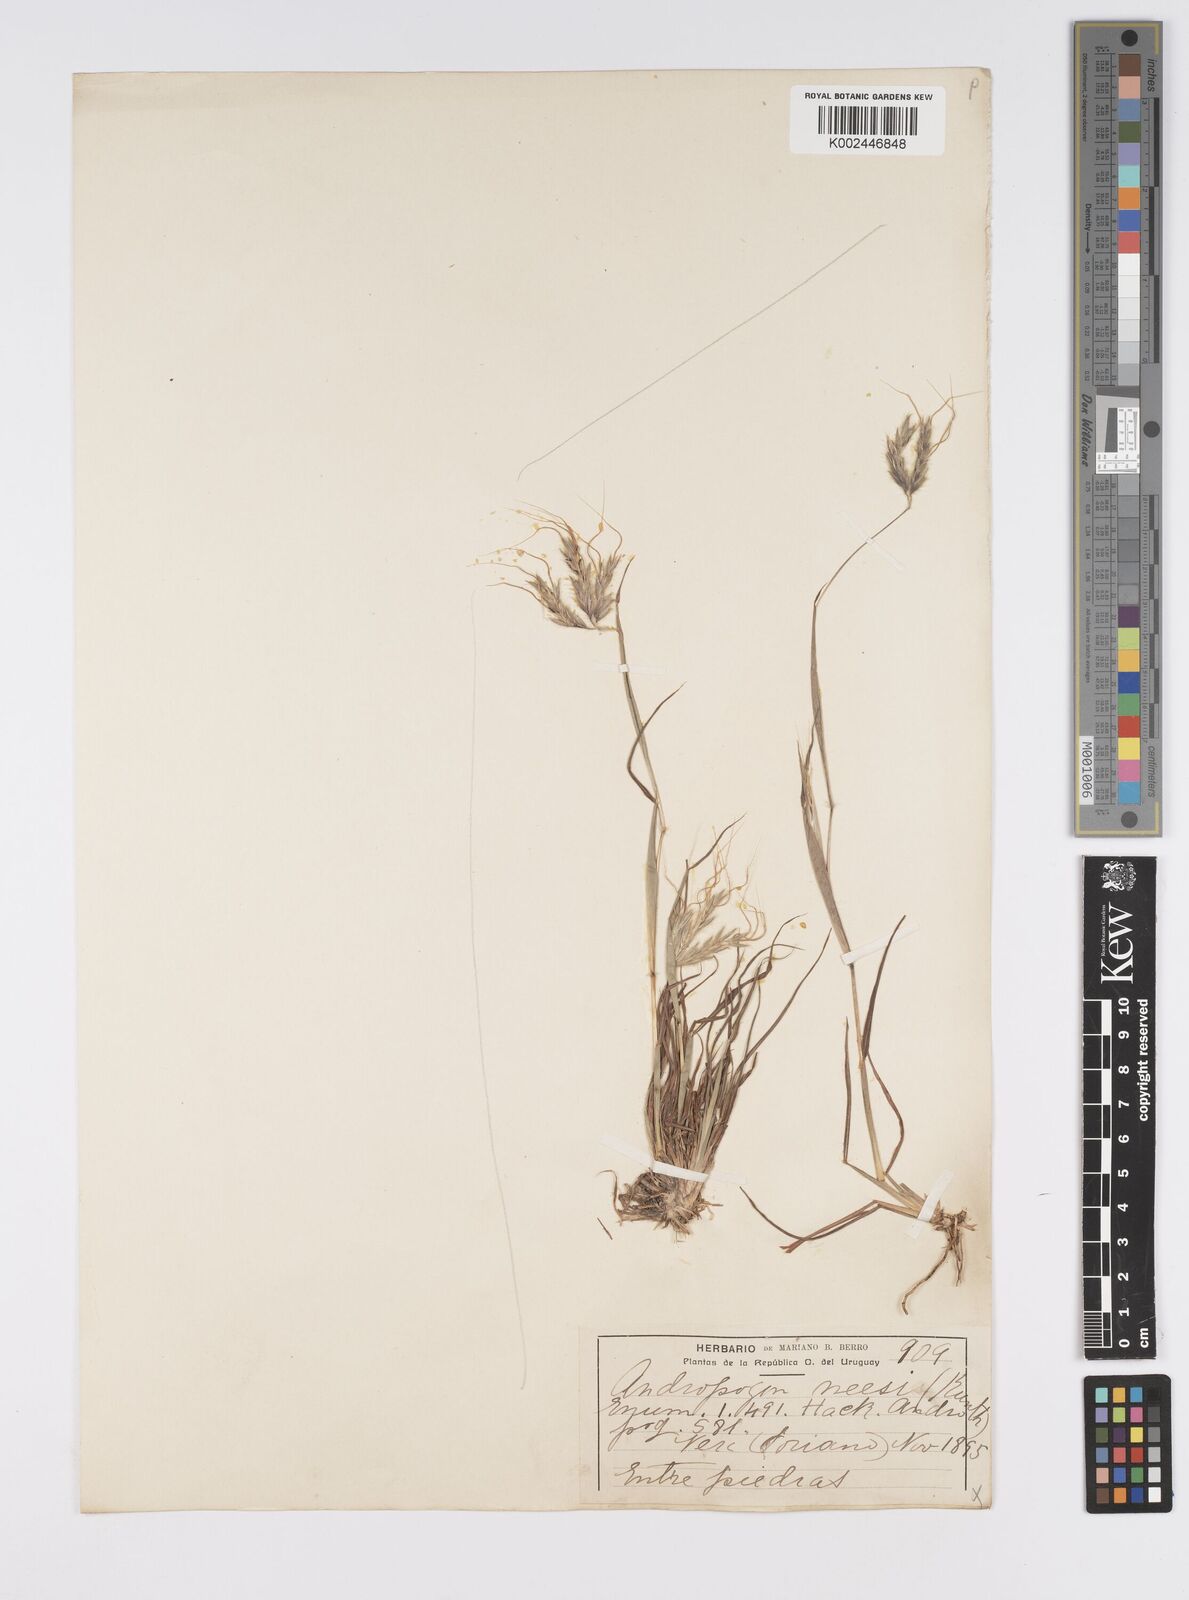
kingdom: Plantae
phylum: Tracheophyta
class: Liliopsida
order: Poales
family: Poaceae
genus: Agenium
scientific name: Agenium villosum
